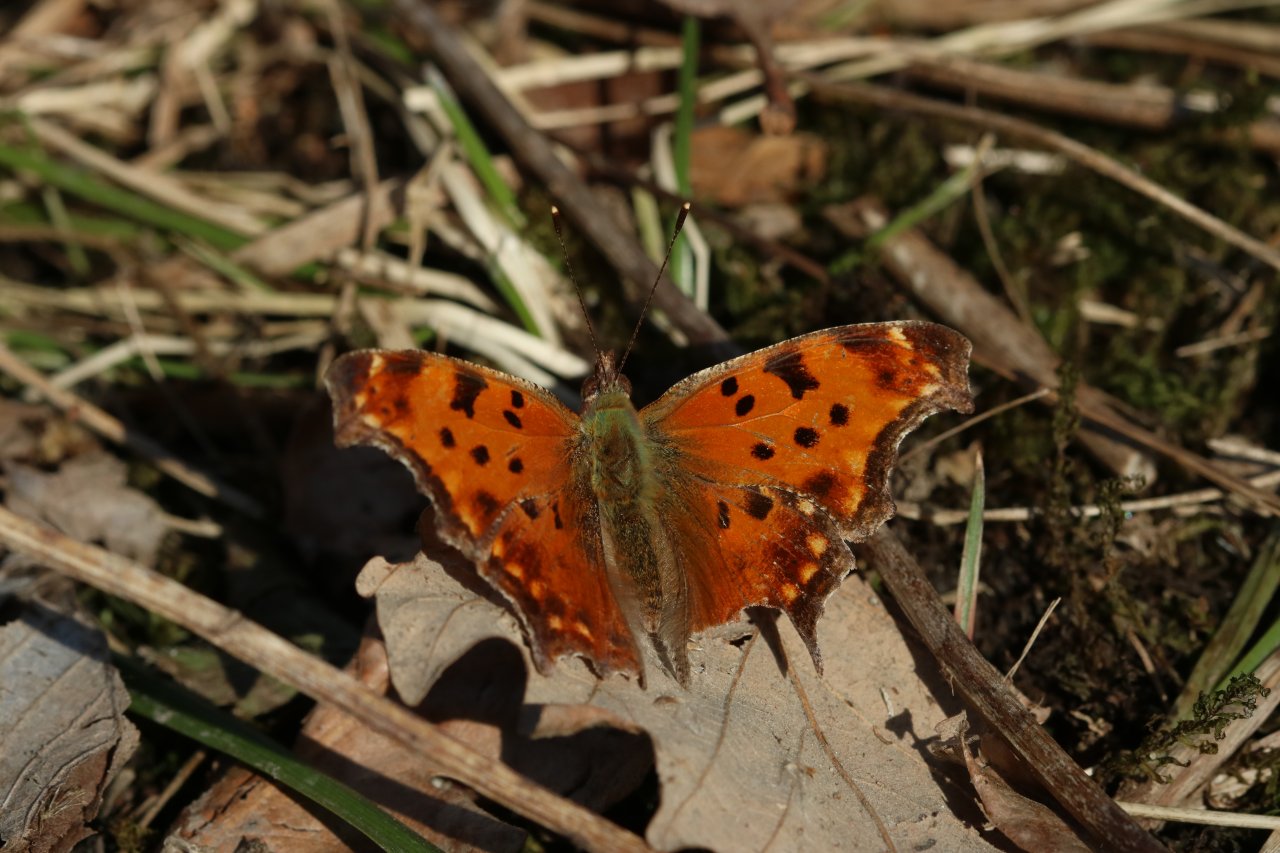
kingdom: Animalia
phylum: Arthropoda
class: Insecta
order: Lepidoptera
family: Nymphalidae
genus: Polygonia
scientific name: Polygonia progne
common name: Gray Comma
